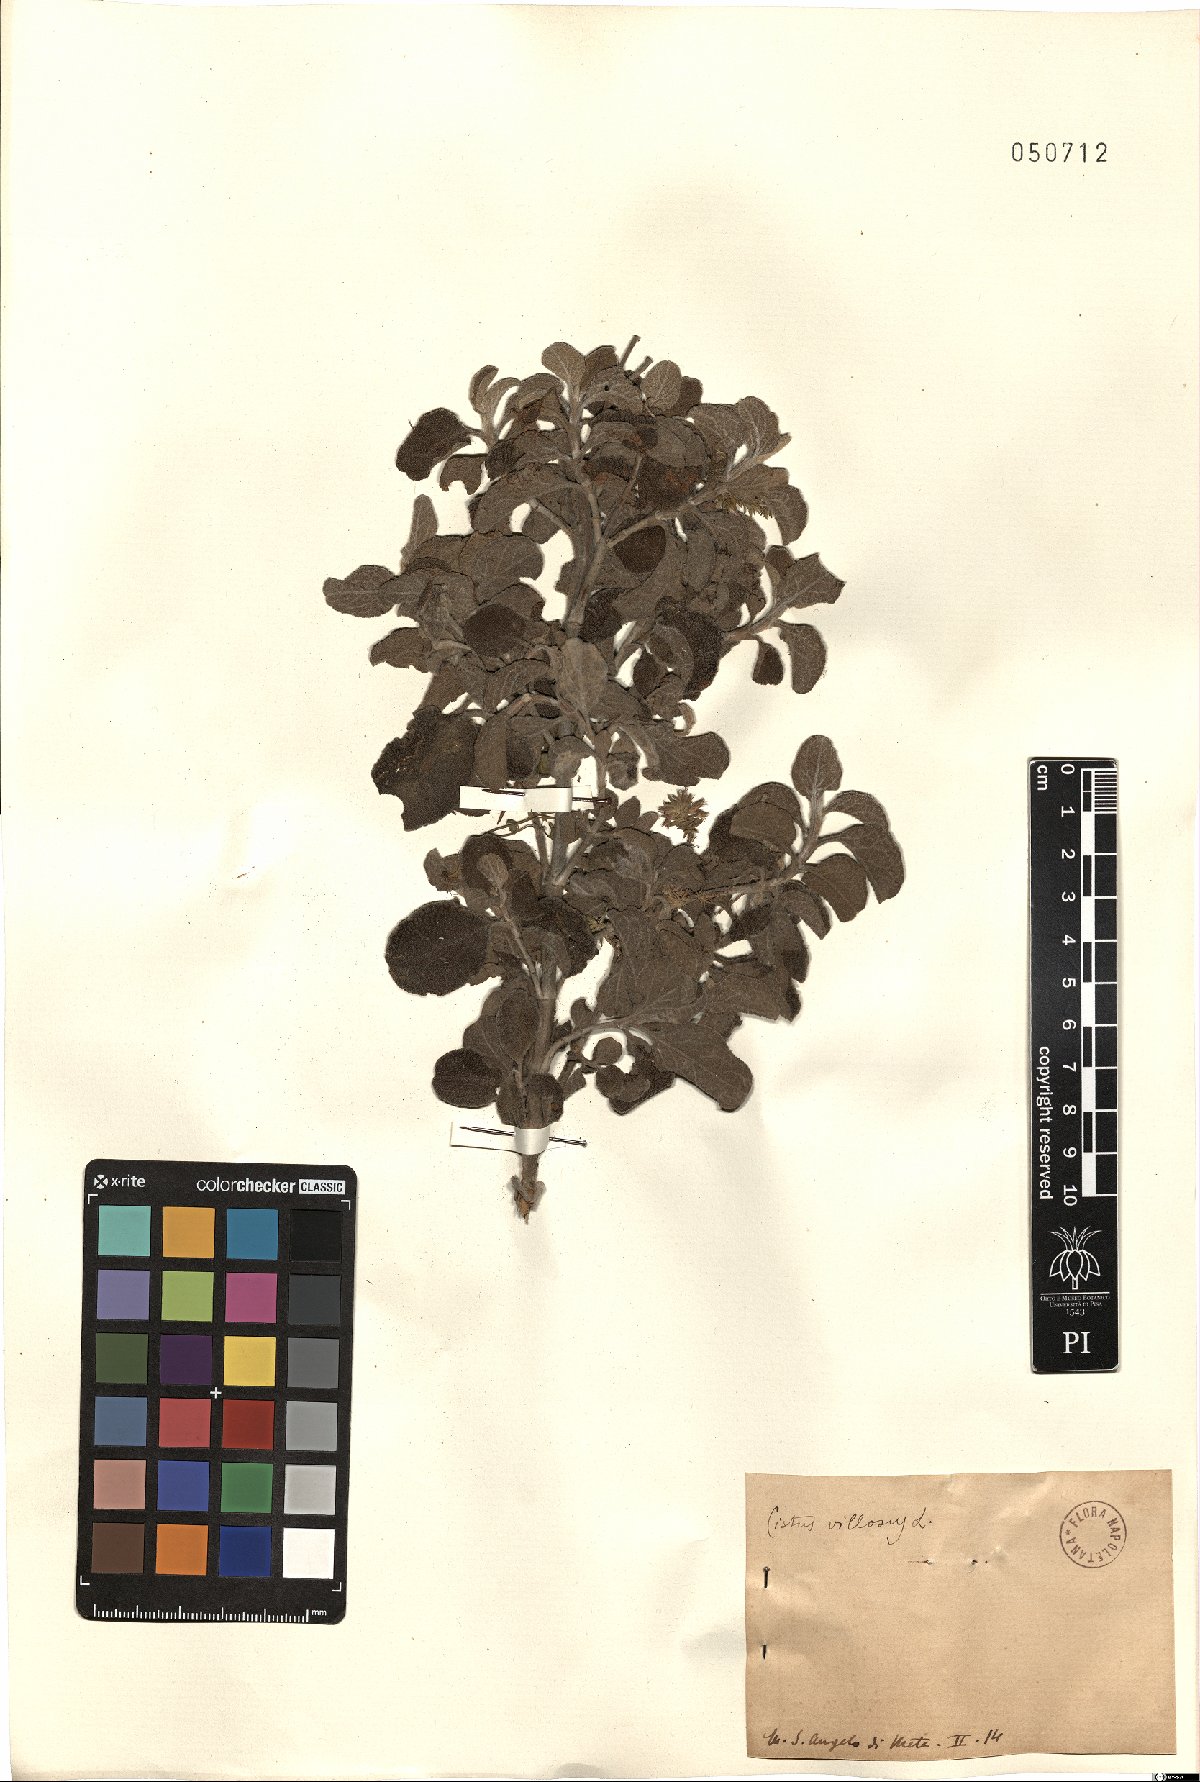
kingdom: Plantae
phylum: Tracheophyta
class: Magnoliopsida
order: Malvales
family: Cistaceae
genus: Cistus
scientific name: Cistus creticus
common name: Cretan rockrose
